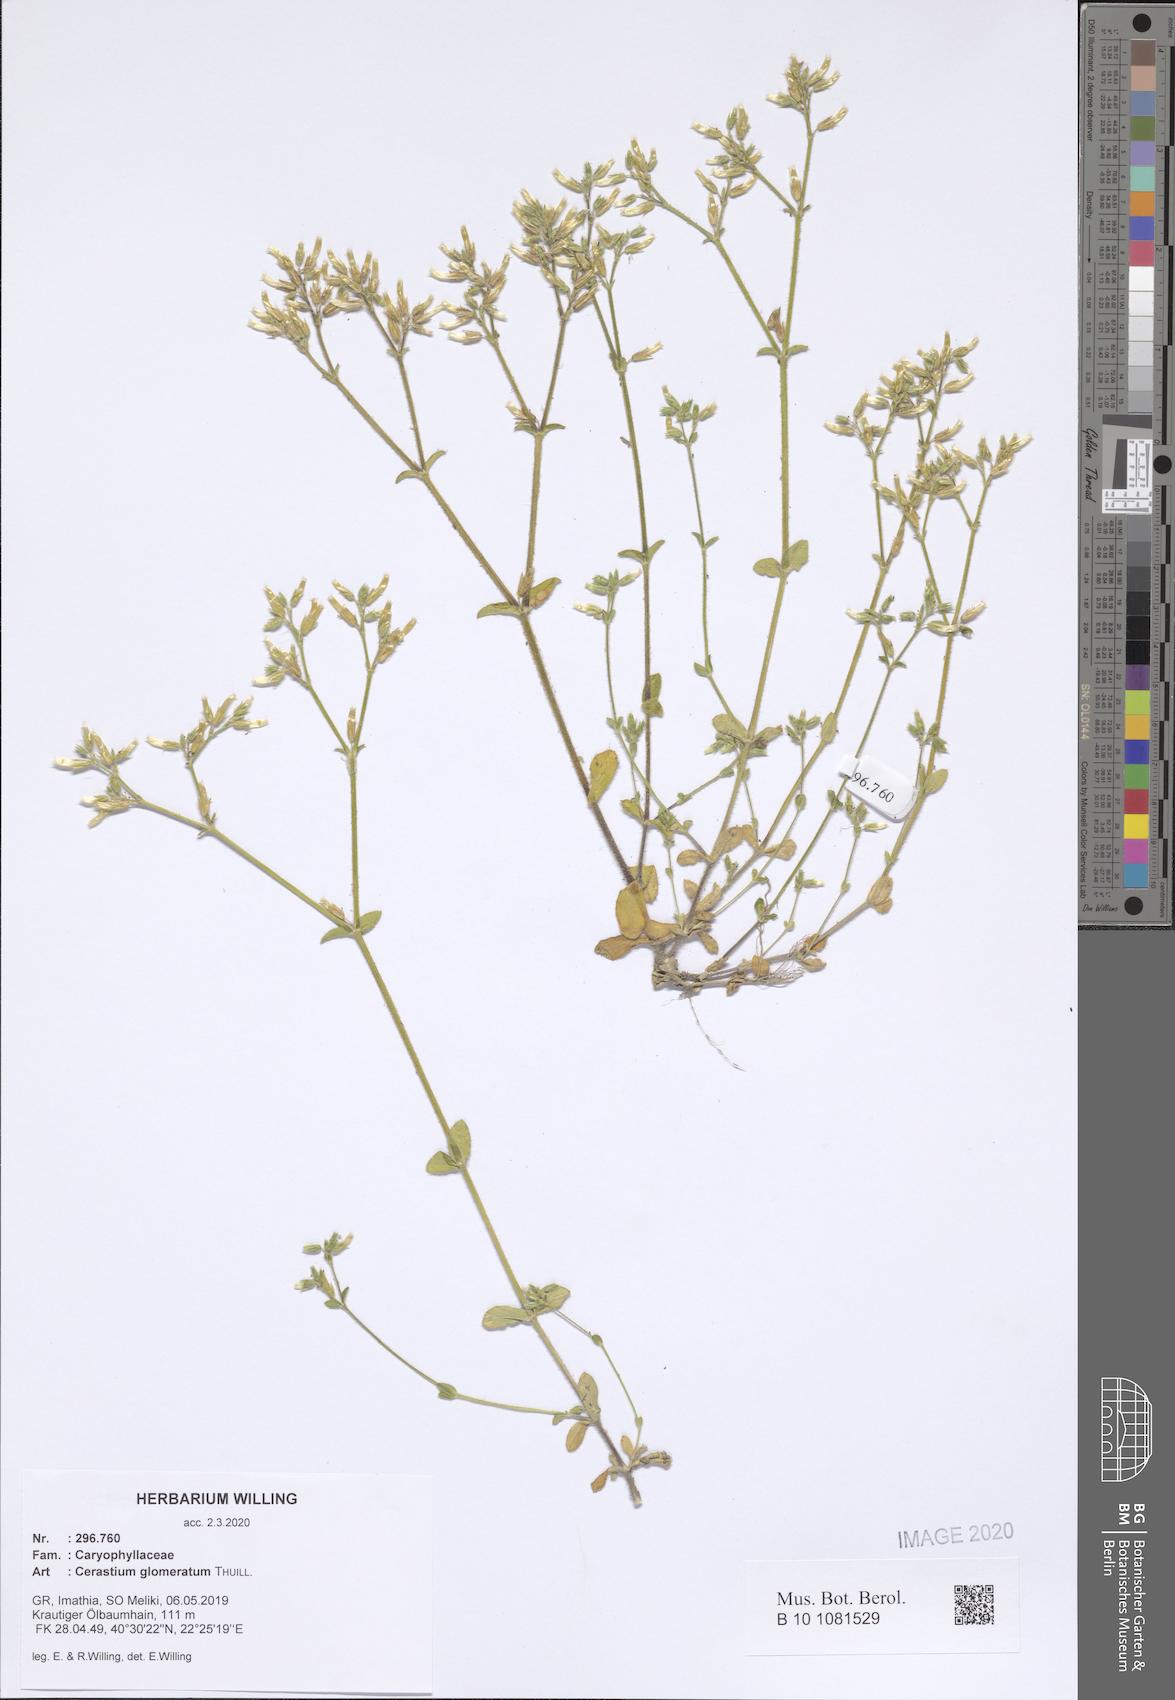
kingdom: Plantae
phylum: Tracheophyta
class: Magnoliopsida
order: Caryophyllales
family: Caryophyllaceae
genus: Cerastium
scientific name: Cerastium glomeratum
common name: Sticky chickweed
